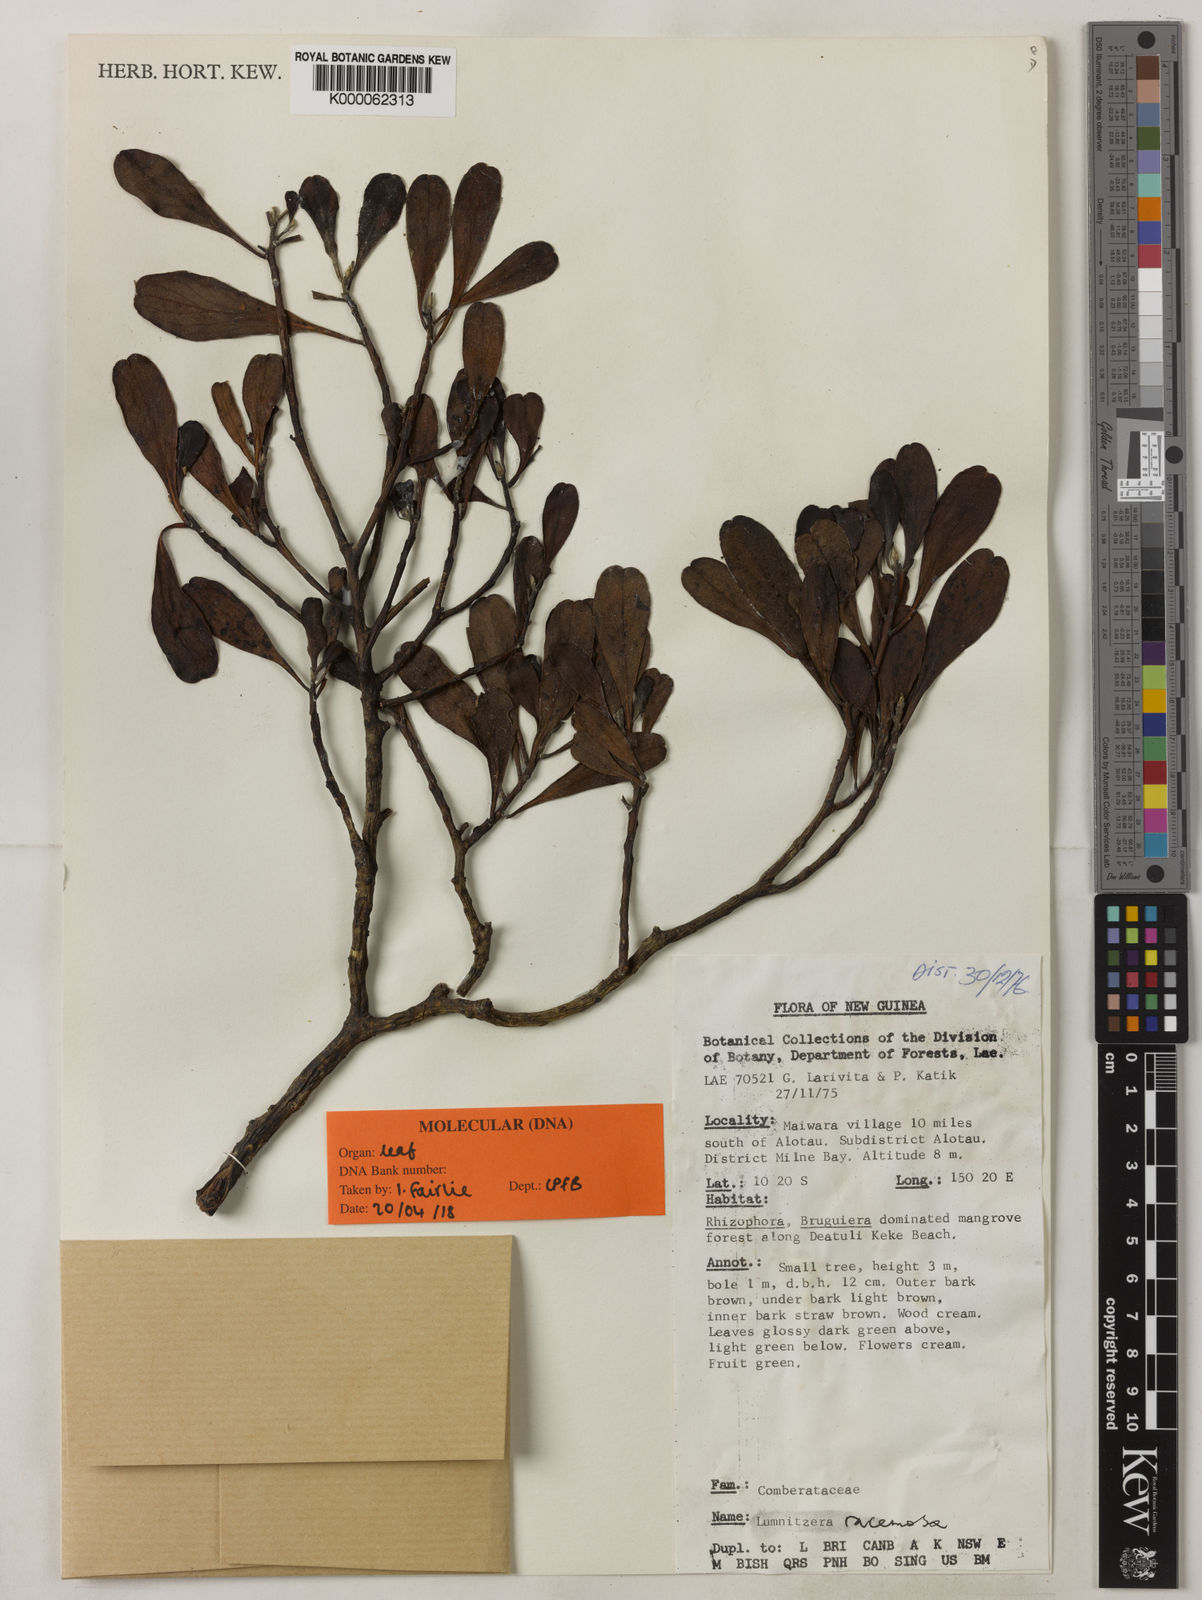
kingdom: Plantae
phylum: Tracheophyta
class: Magnoliopsida
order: Myrtales
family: Combretaceae
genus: Lumnitzera
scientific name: Lumnitzera racemosa
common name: White-flowered black mangrove
